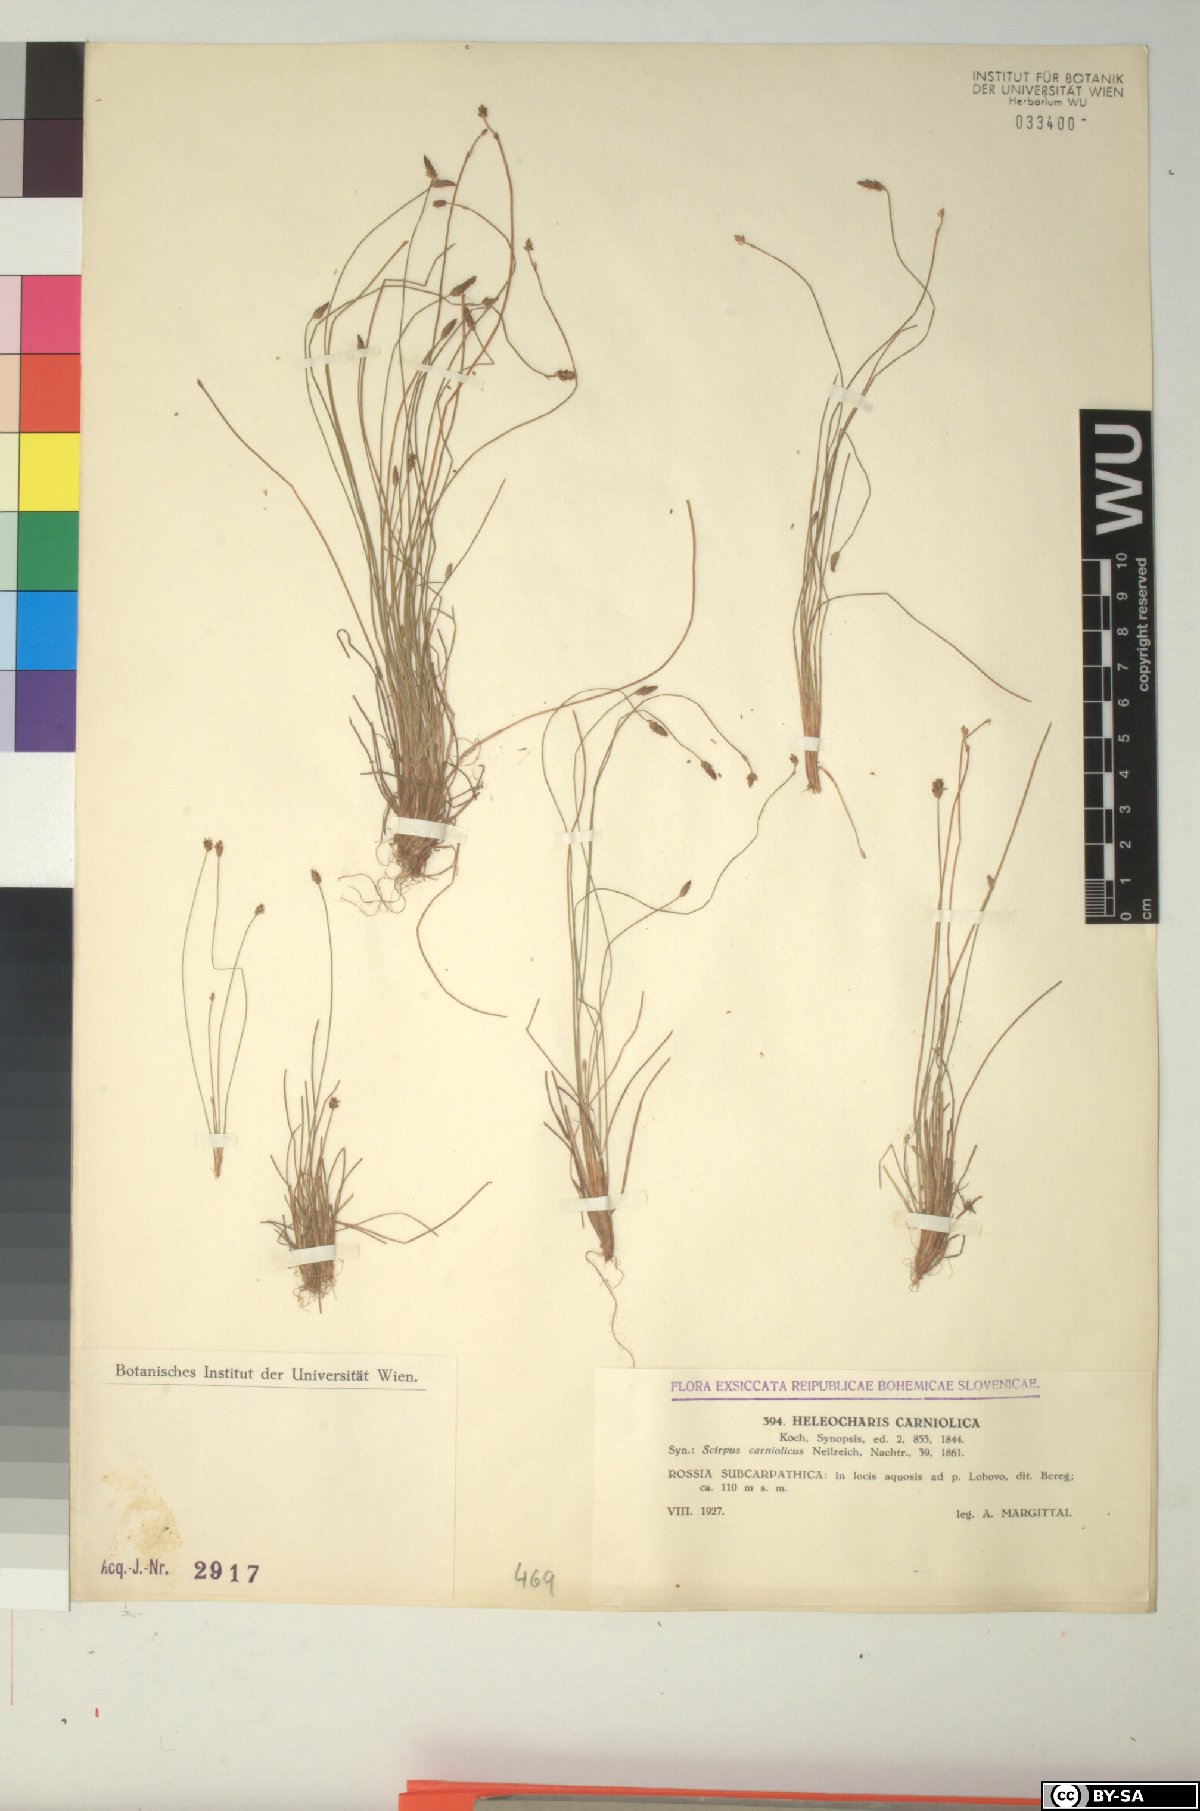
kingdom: Plantae
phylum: Tracheophyta
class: Liliopsida
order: Poales
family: Cyperaceae
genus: Eleocharis
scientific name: Eleocharis carniolica
